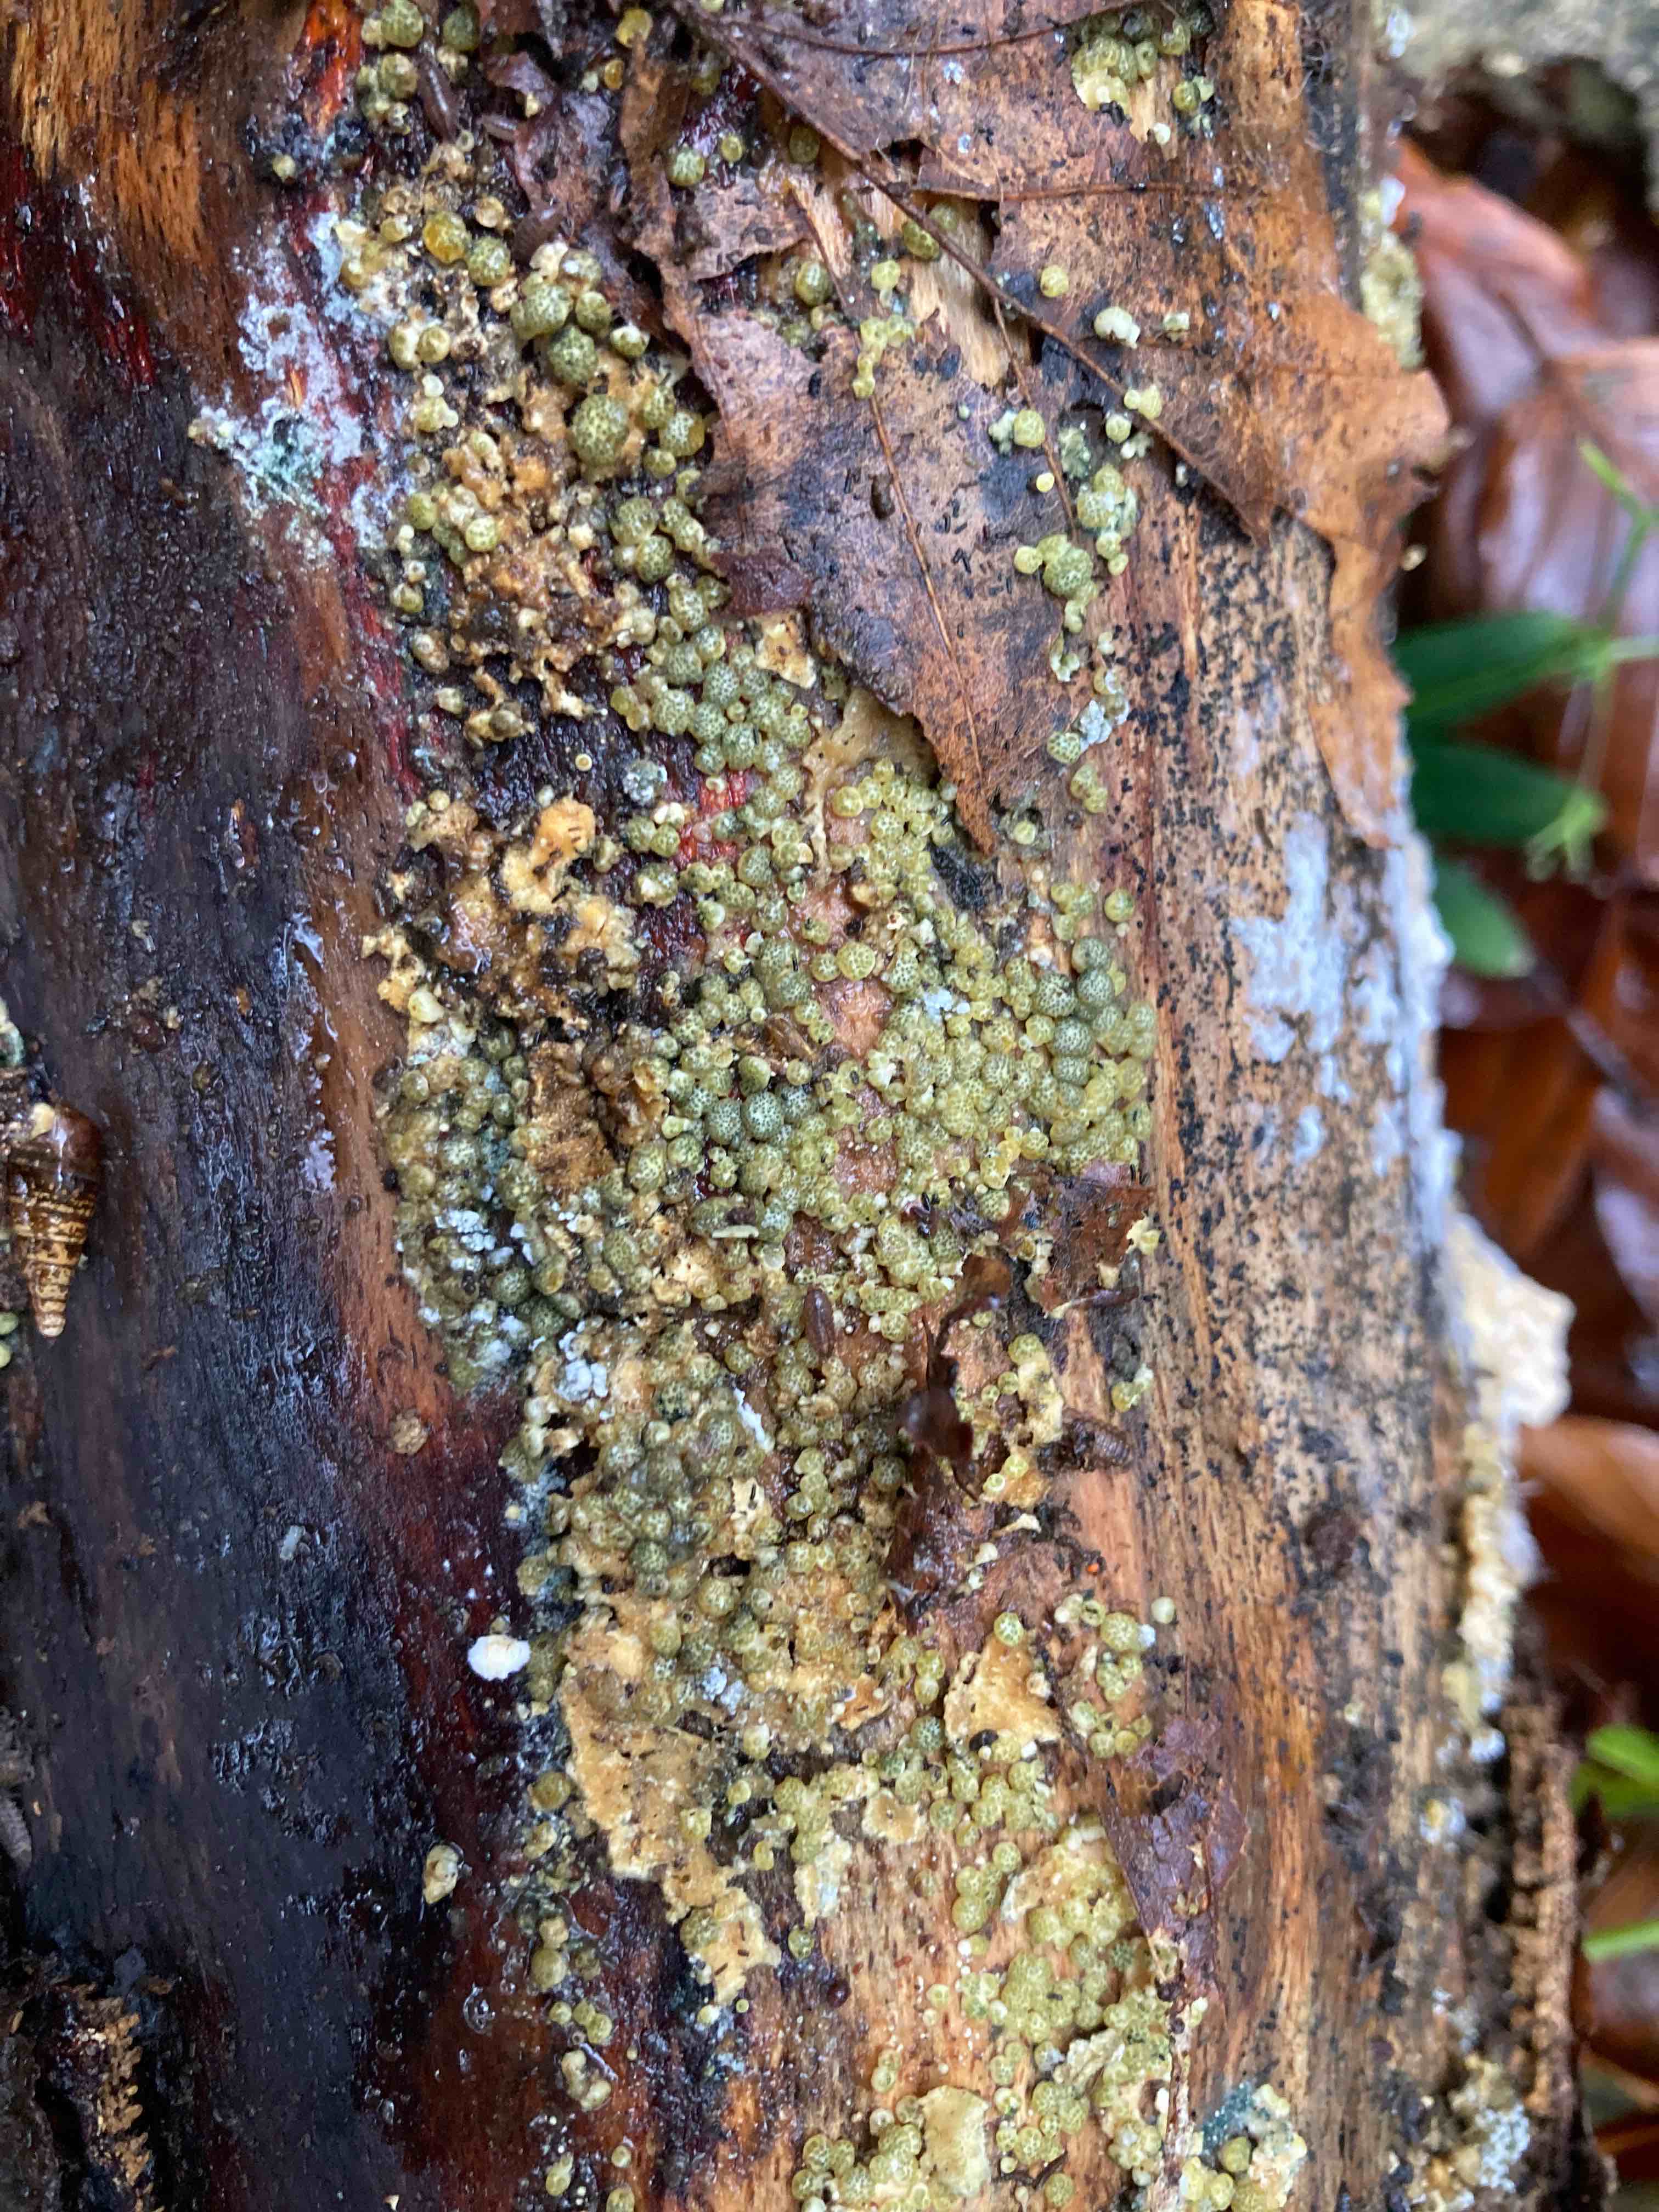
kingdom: Fungi
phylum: Ascomycota
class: Sordariomycetes
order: Hypocreales
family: Hypocreaceae
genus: Trichoderma
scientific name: Trichoderma strictipile
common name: grønprikket kødkerne
